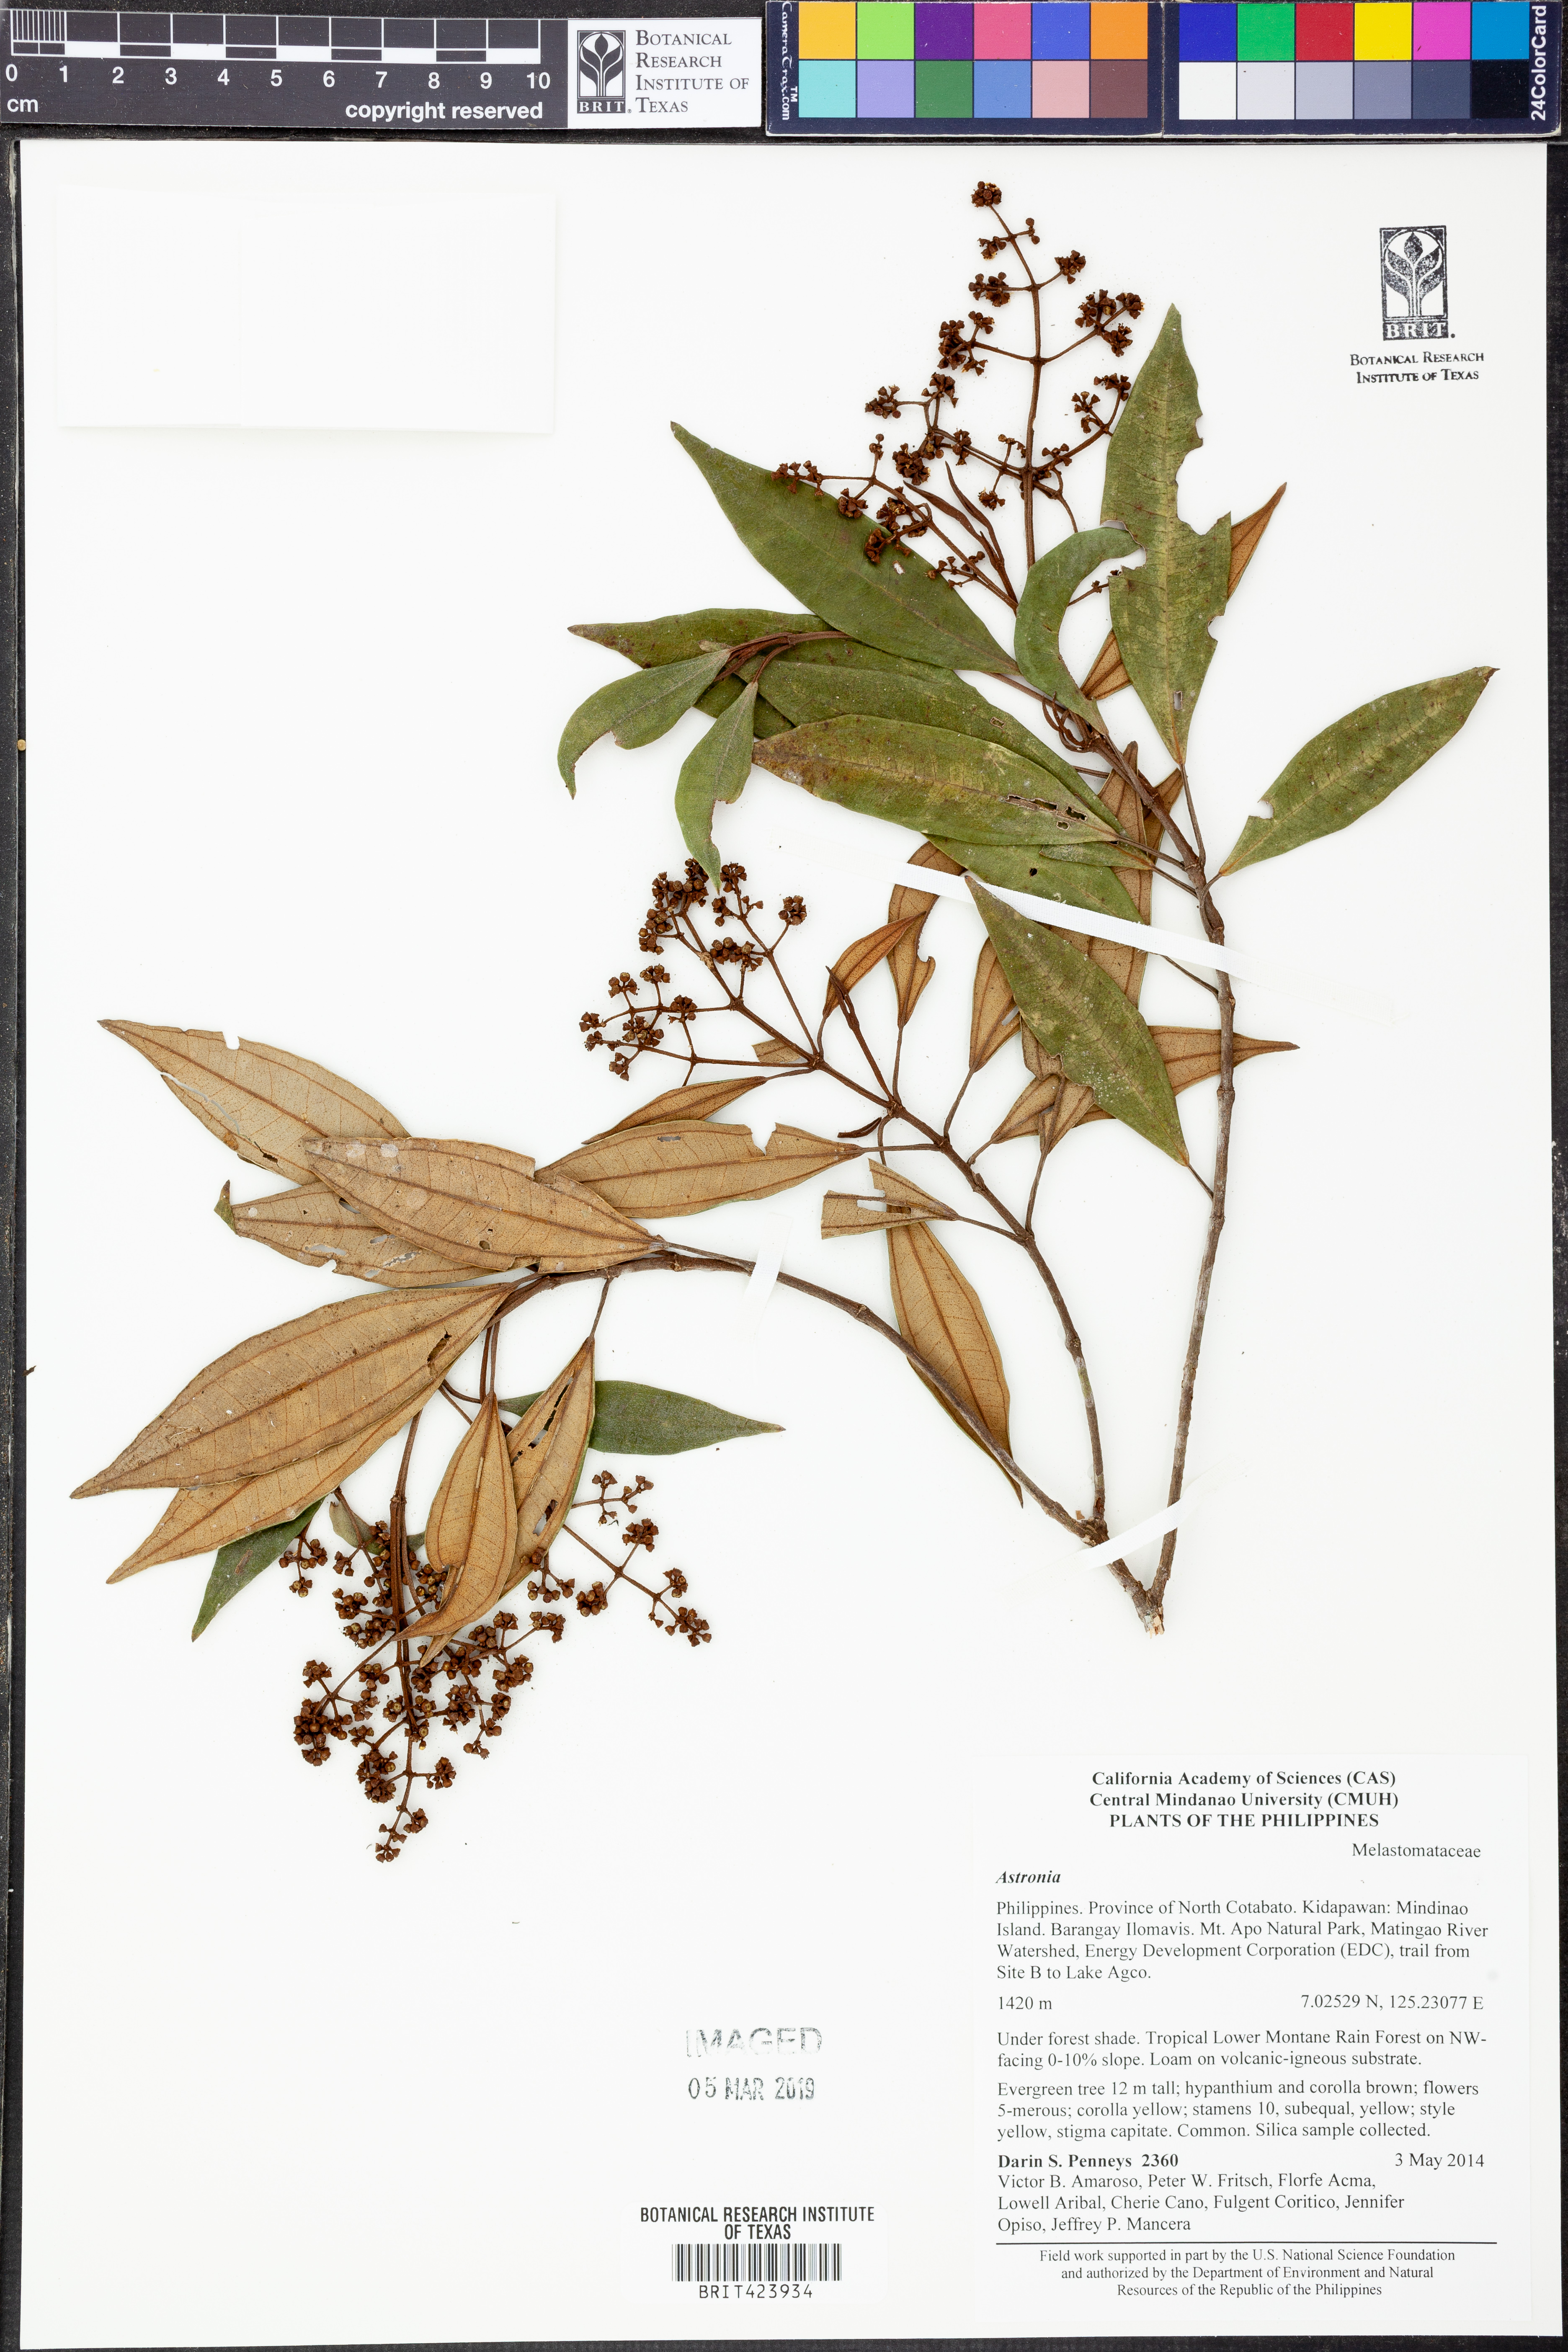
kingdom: Plantae
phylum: Tracheophyta
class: Magnoliopsida
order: Myrtales
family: Melastomataceae
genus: Astronia
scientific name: Astronia
